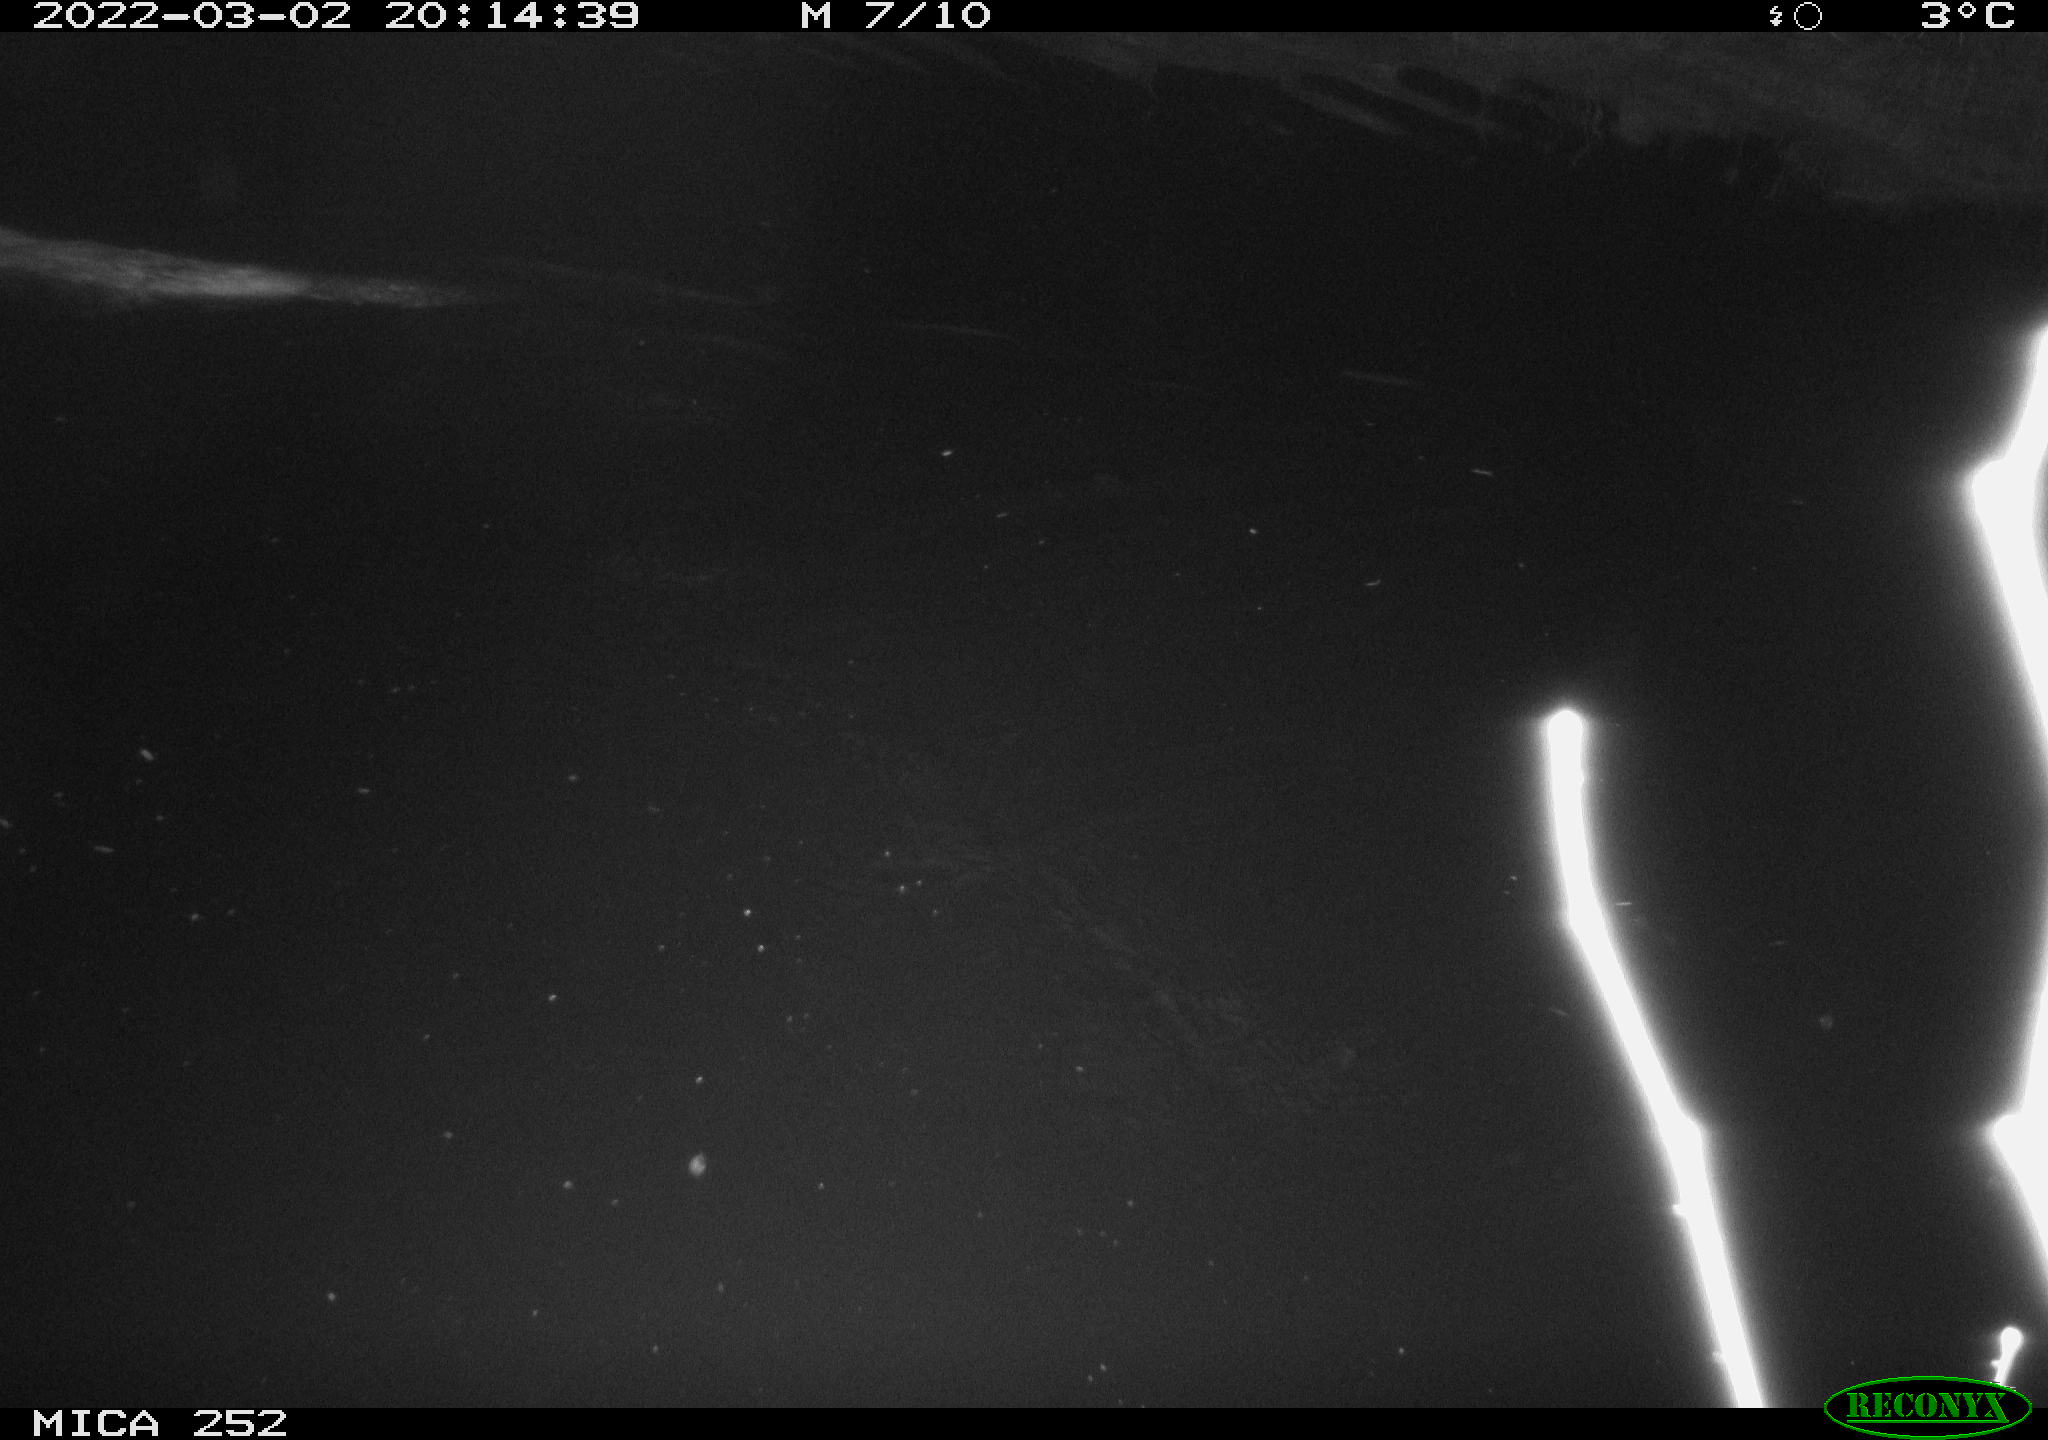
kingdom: Animalia
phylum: Chordata
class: Mammalia
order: Rodentia
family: Castoridae
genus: Castor
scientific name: Castor fiber
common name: Eurasian beaver
